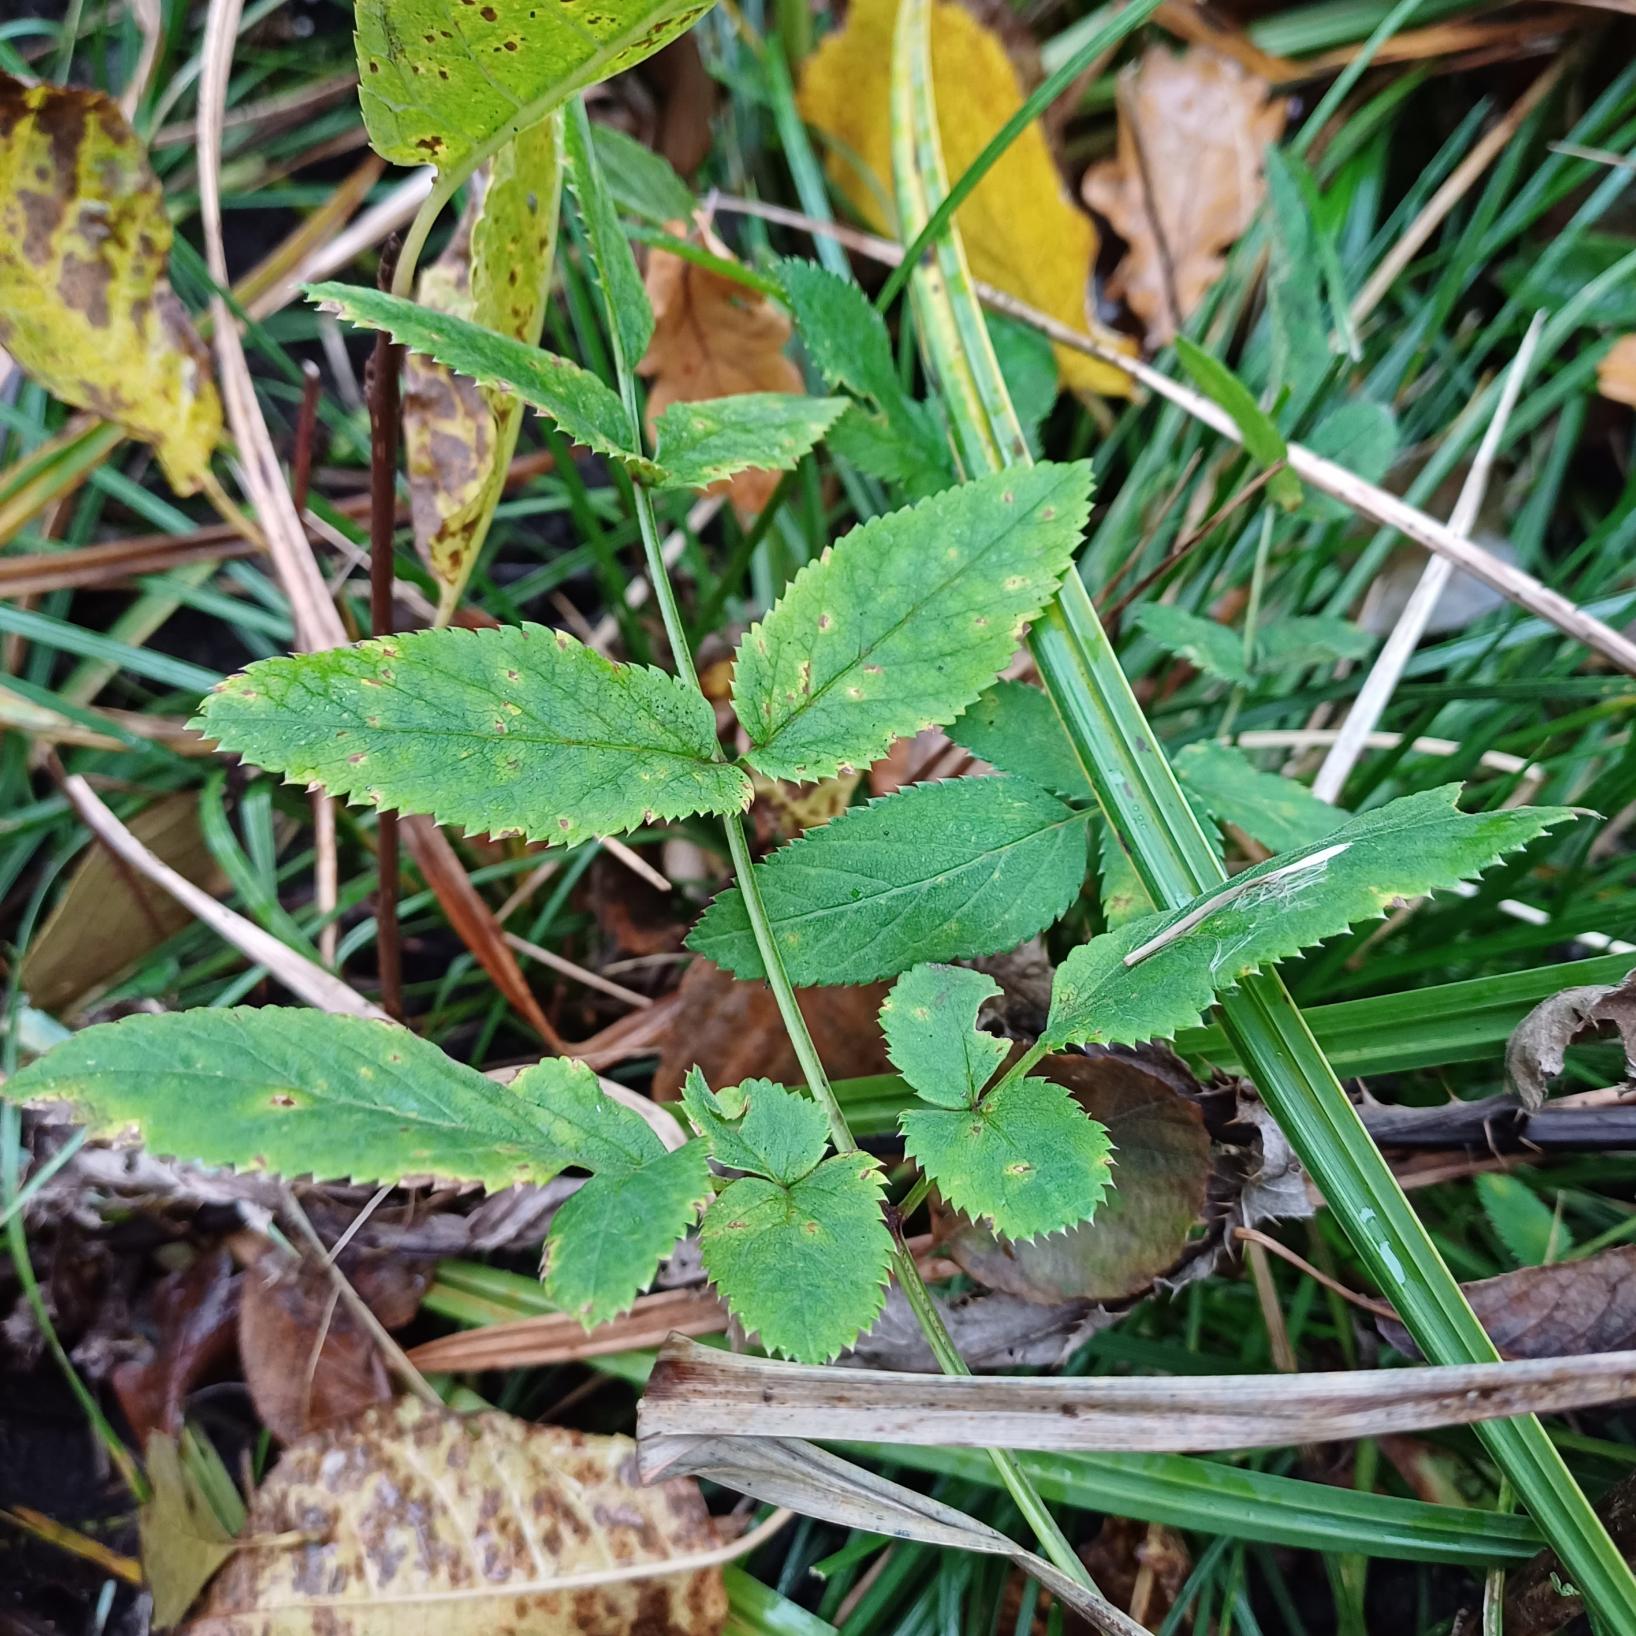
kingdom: Plantae
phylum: Tracheophyta
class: Magnoliopsida
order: Apiales
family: Apiaceae
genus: Angelica
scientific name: Angelica sylvestris
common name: Angelik
